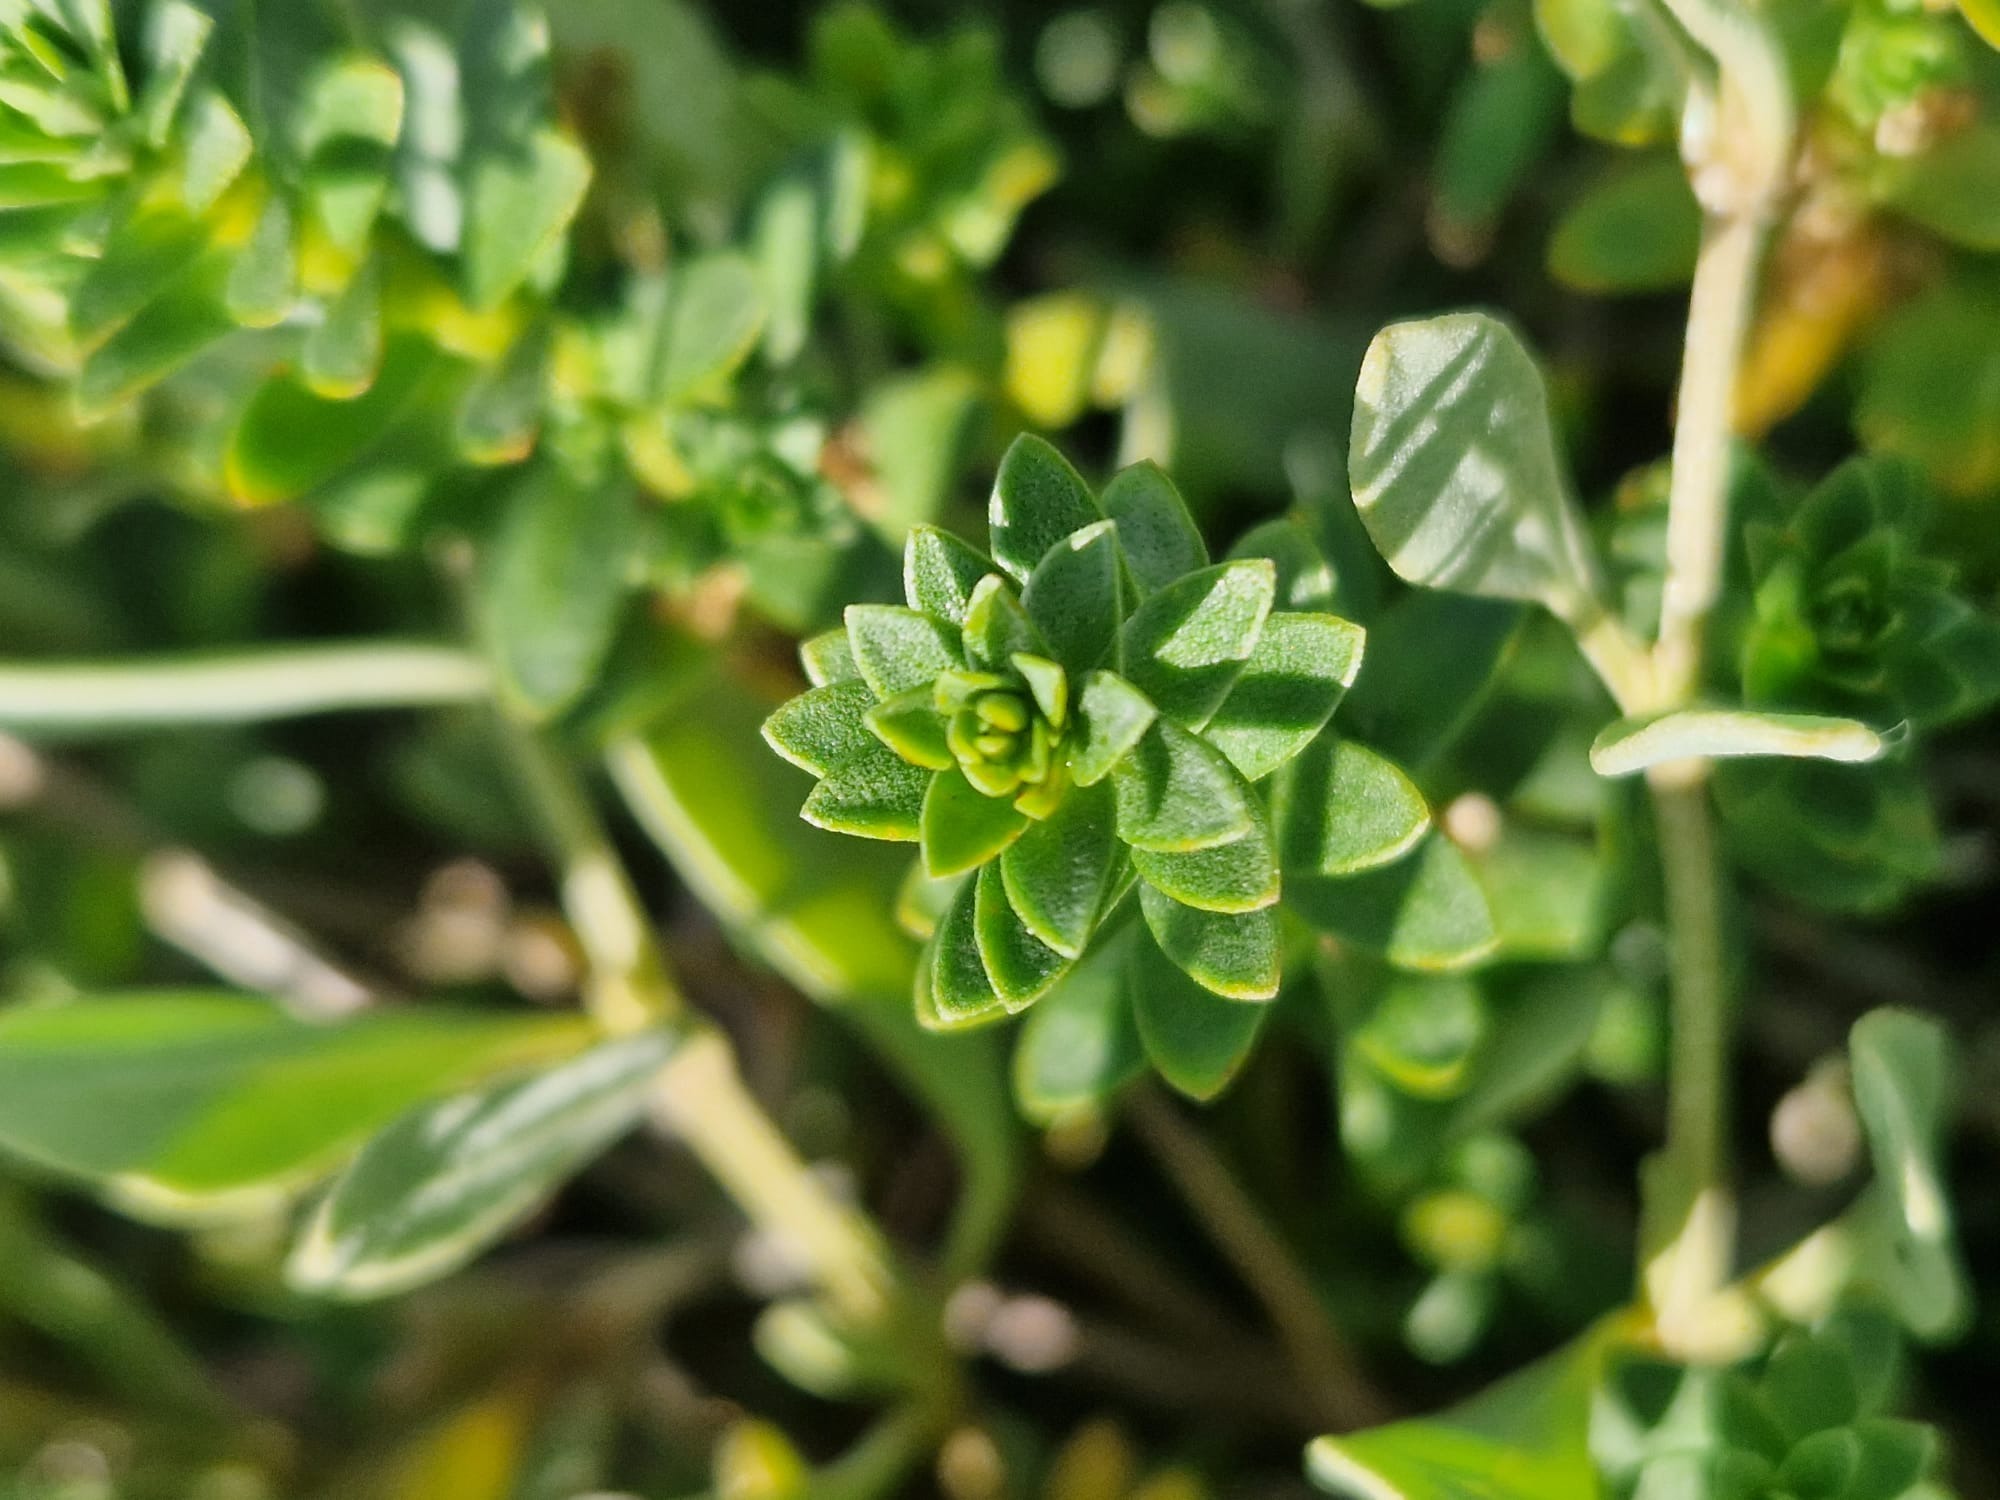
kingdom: Plantae
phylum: Tracheophyta
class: Magnoliopsida
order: Caryophyllales
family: Caryophyllaceae
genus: Honckenya
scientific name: Honckenya peploides
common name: Strandarve
